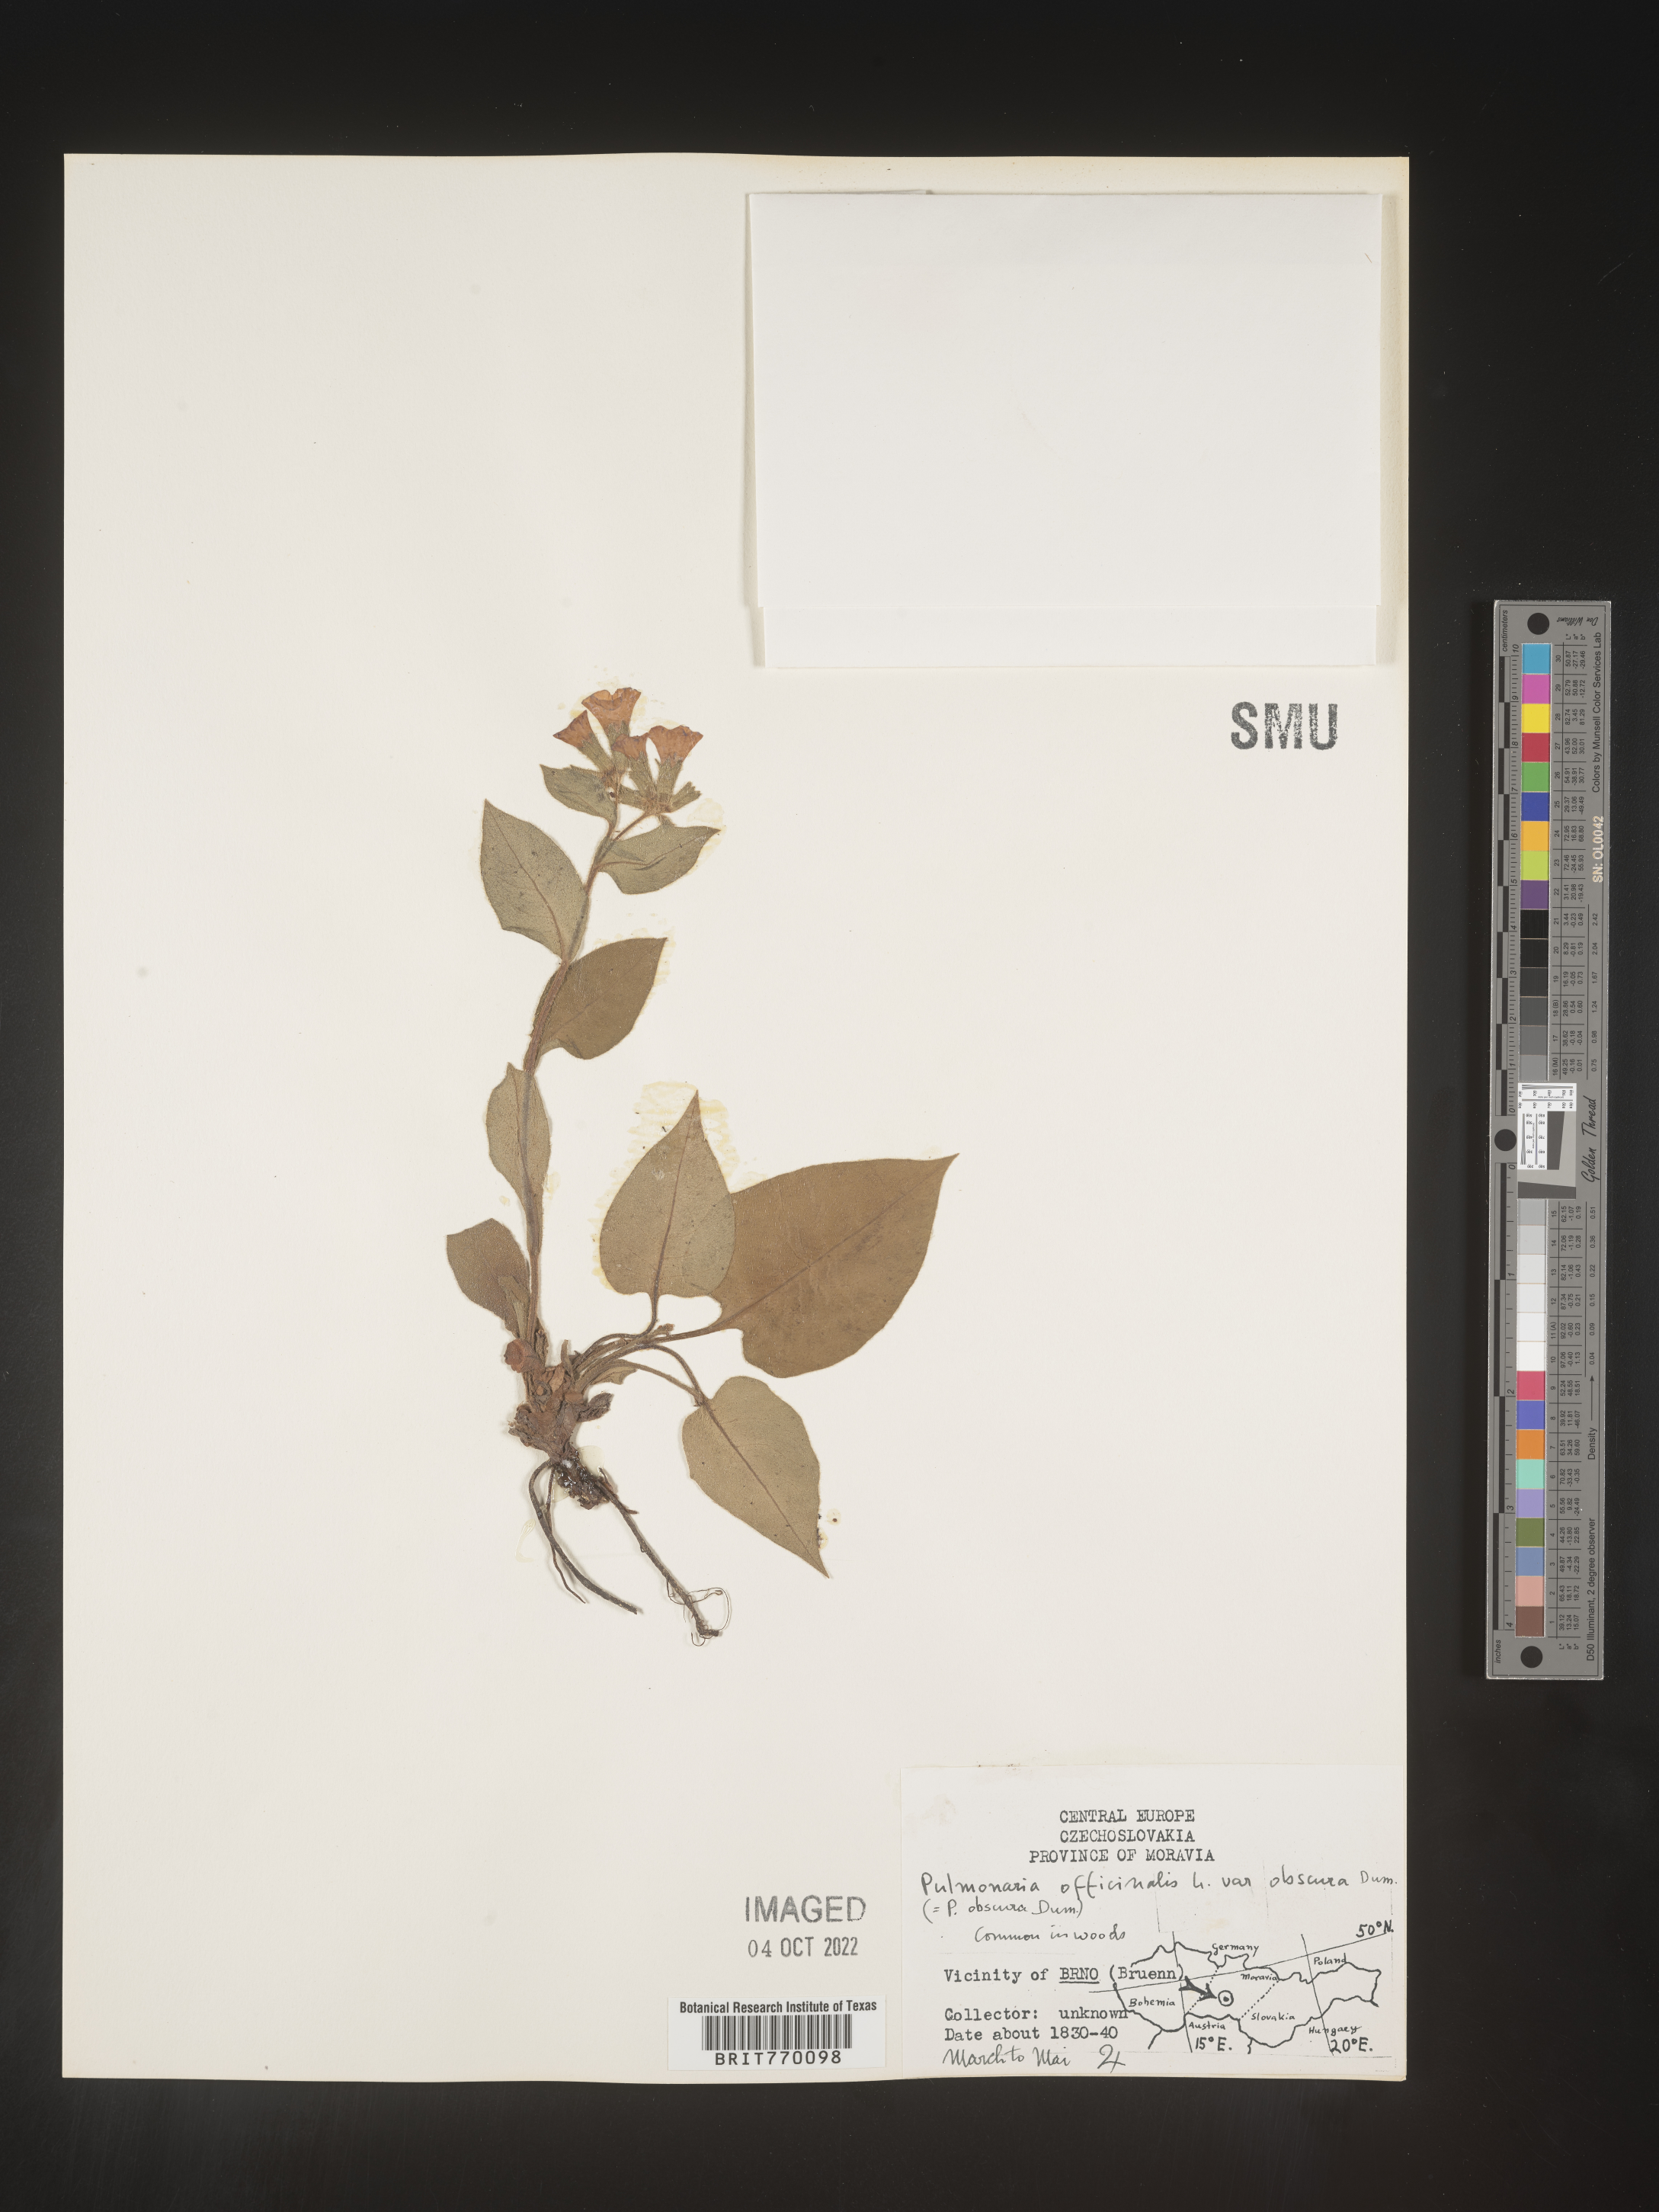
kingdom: Plantae
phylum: Tracheophyta
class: Magnoliopsida
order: Boraginales
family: Boraginaceae
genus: Pulmonaria
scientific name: Pulmonaria
